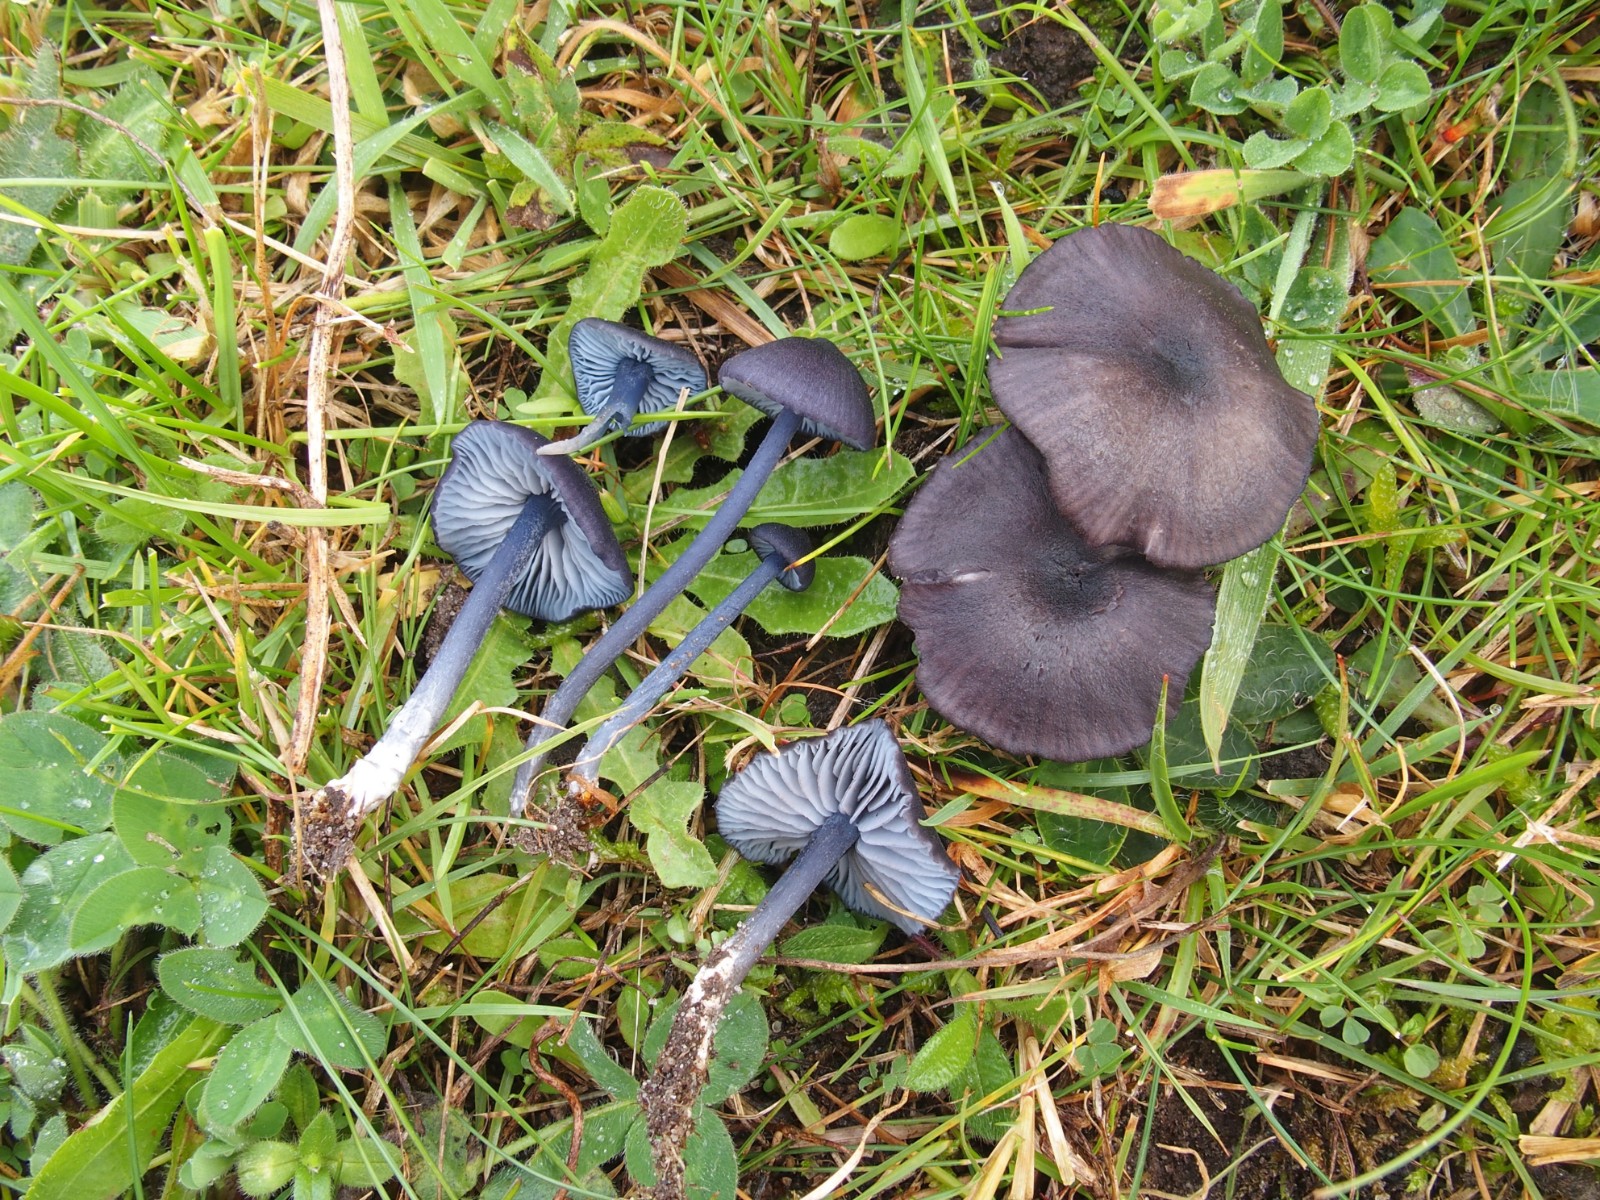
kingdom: Fungi
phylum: Basidiomycota
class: Agaricomycetes
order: Agaricales
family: Entolomataceae
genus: Entoloma
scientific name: Entoloma chalybeum
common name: blåbladet rødblad
